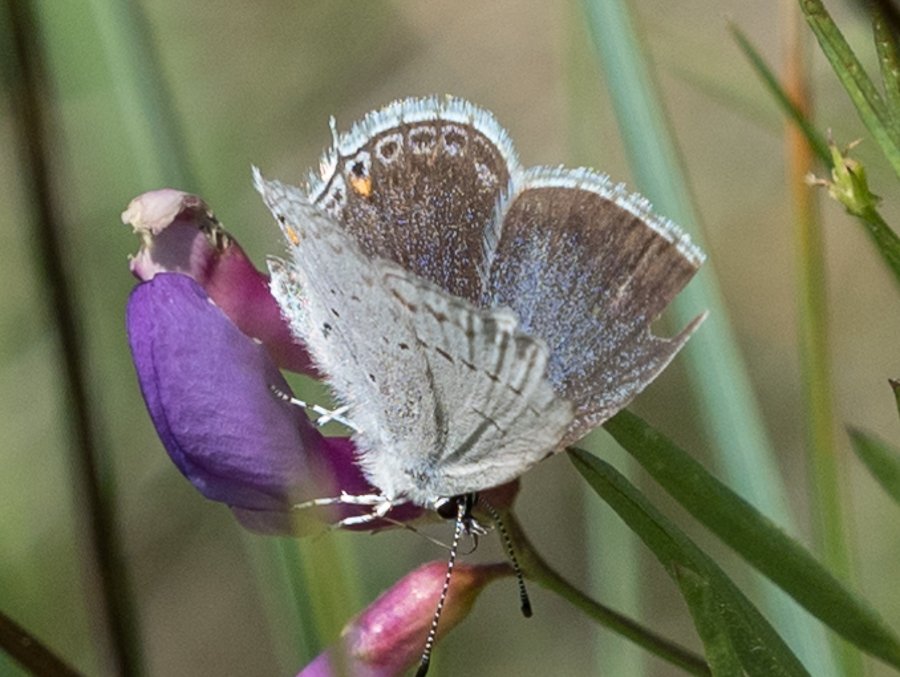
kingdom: Animalia
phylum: Arthropoda
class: Insecta
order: Lepidoptera
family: Lycaenidae
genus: Elkalyce
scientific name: Elkalyce amyntula
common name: Western Tailed-Blue
